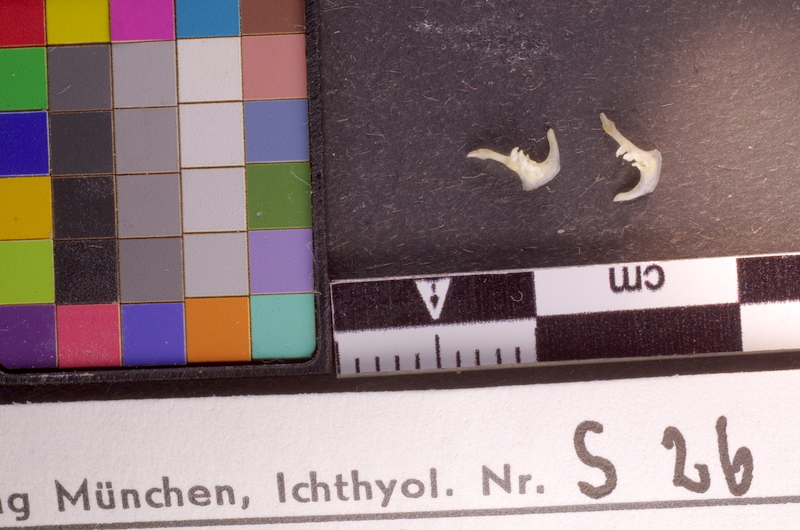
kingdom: Animalia
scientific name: Animalia
